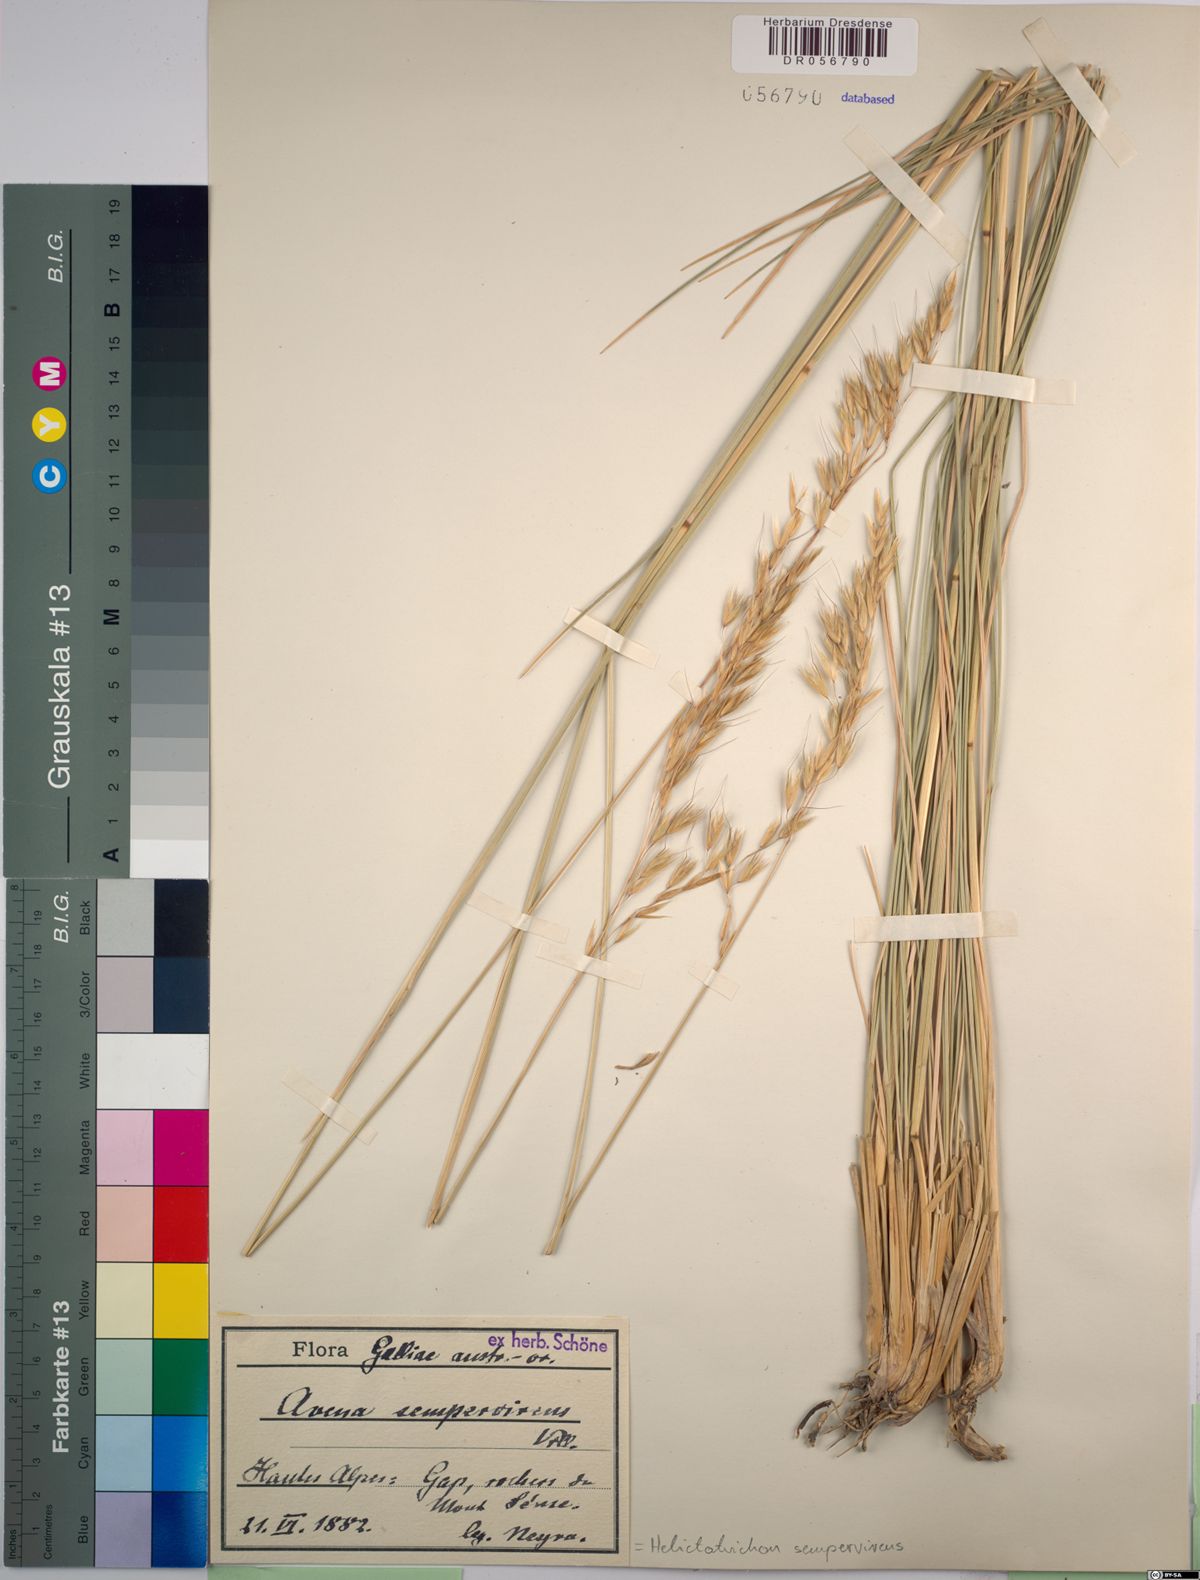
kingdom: Plantae
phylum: Tracheophyta
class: Liliopsida
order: Poales
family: Poaceae
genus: Helictotrichon
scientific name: Helictotrichon sempervirens
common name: Blue oat-grass
